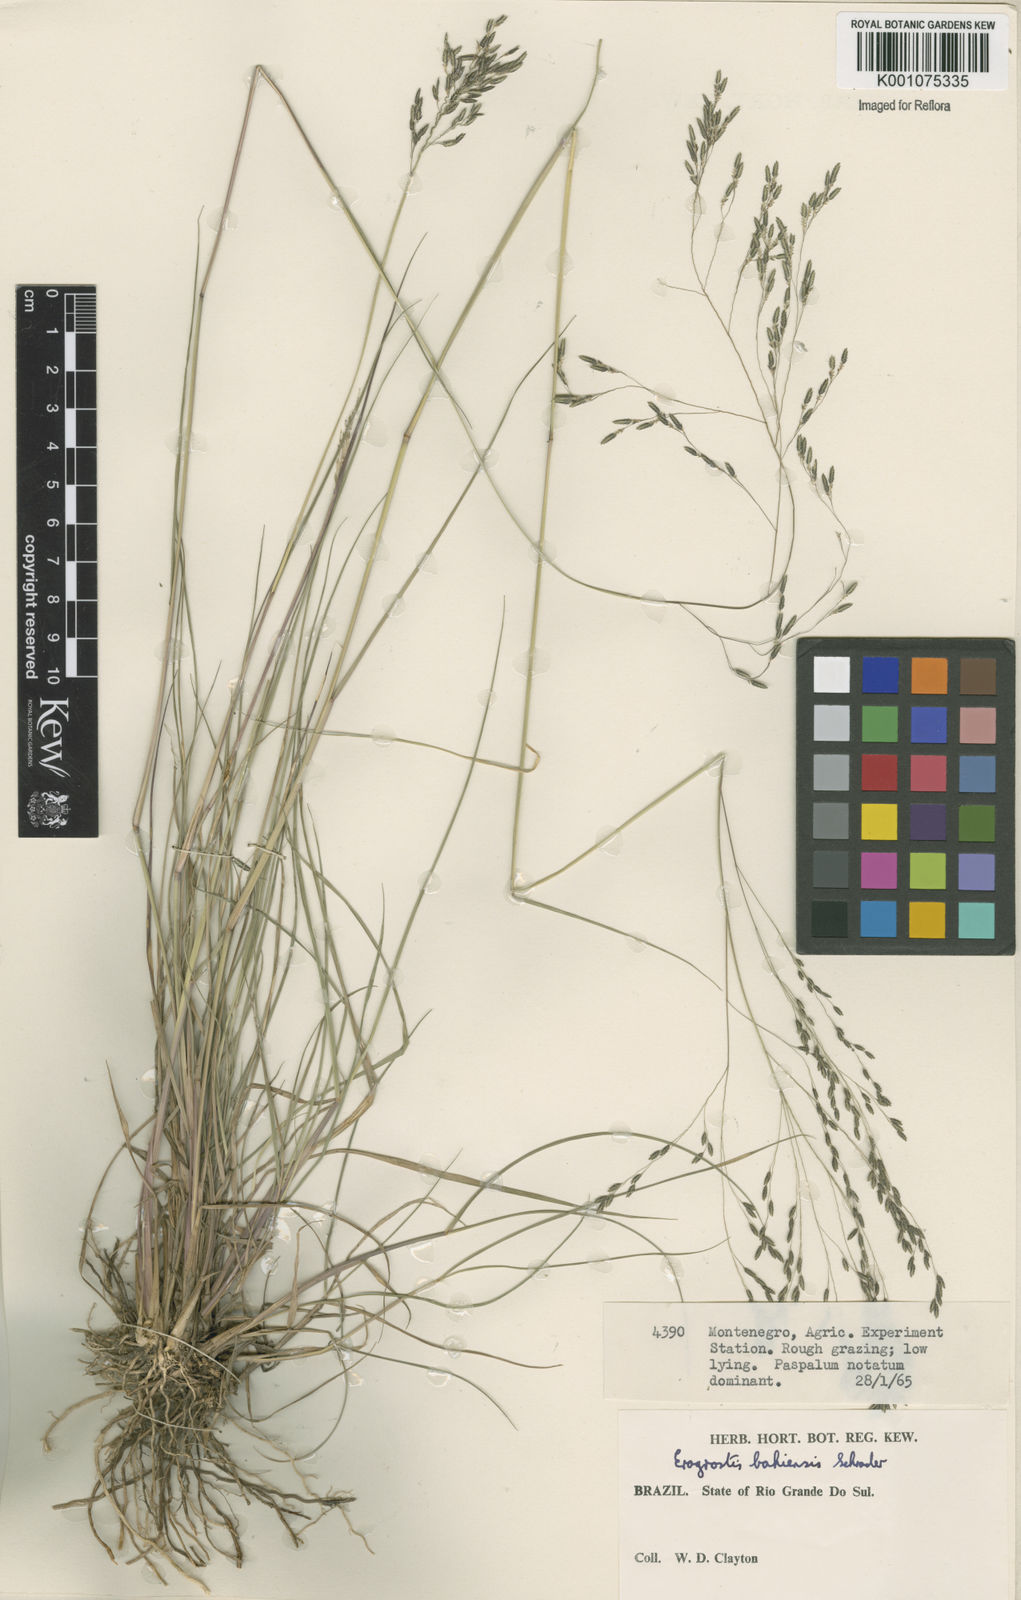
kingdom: Plantae
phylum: Tracheophyta
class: Liliopsida
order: Poales
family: Poaceae
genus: Eragrostis
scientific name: Eragrostis bahiensis
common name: Bahia lovegrass
